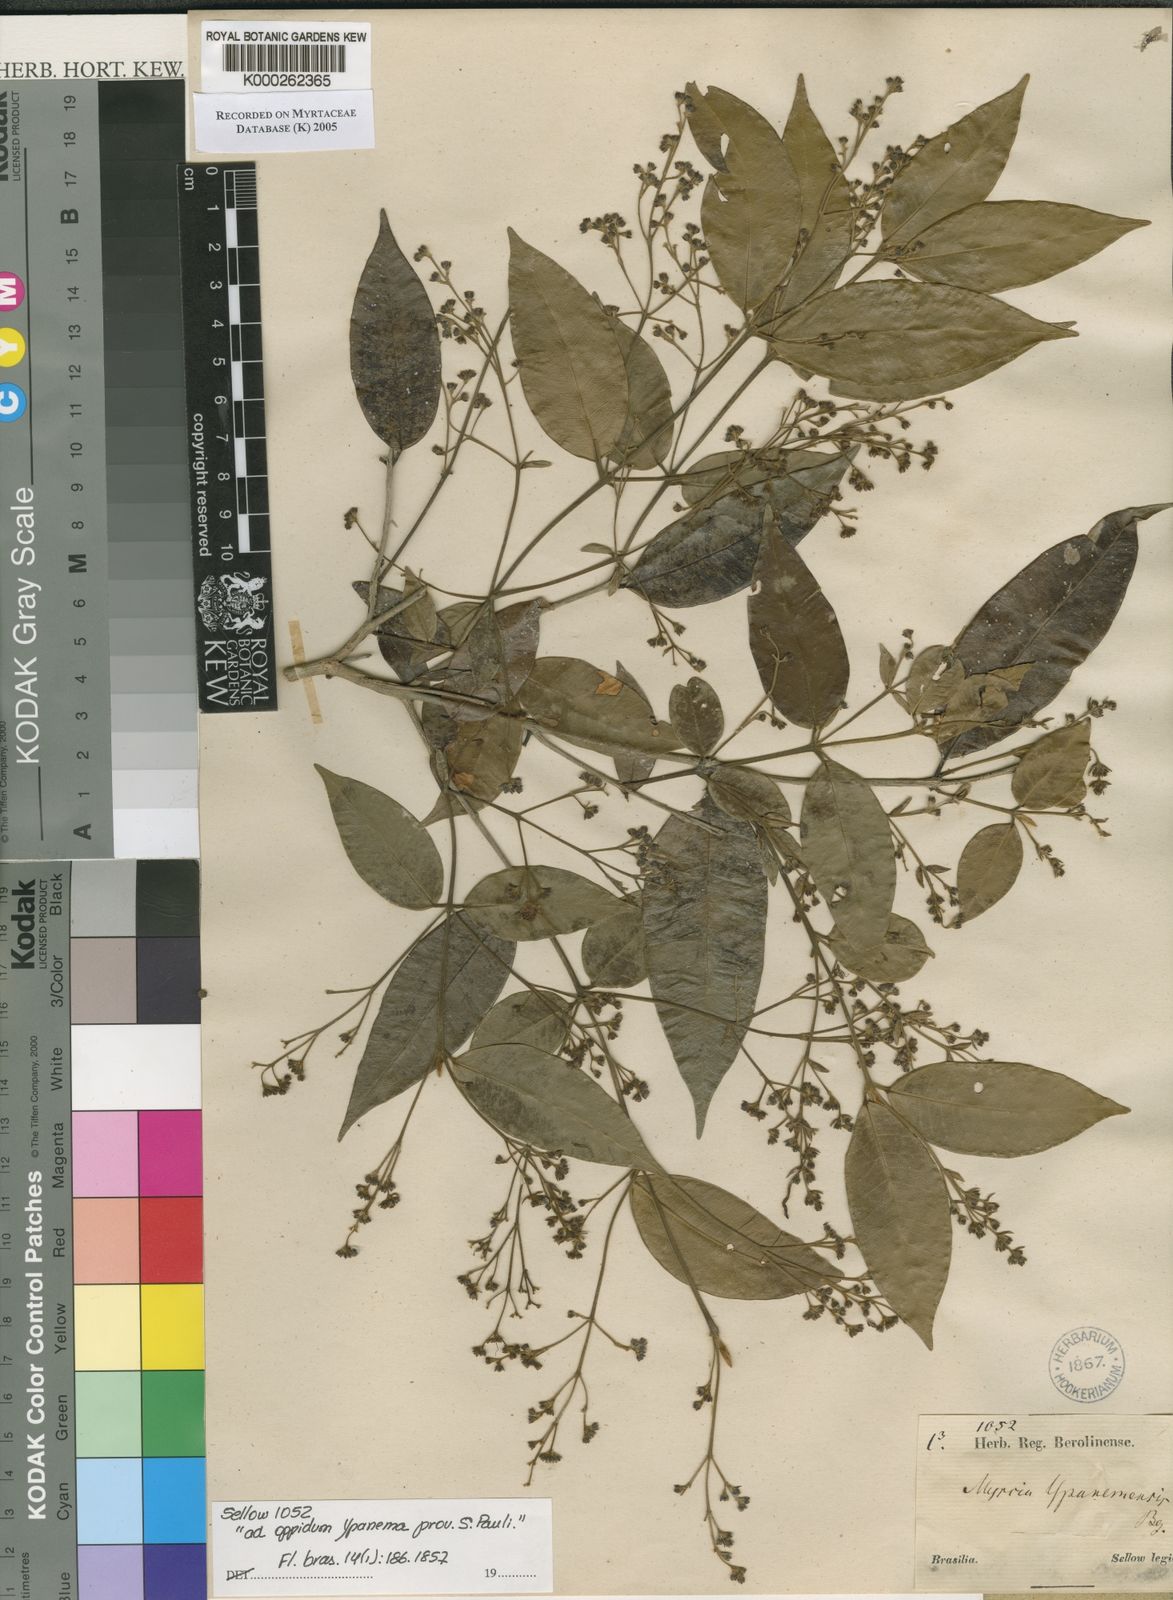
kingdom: Plantae
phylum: Tracheophyta
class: Magnoliopsida
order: Myrtales
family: Myrtaceae
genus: Myrcia
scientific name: Myrcia splendens
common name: Surinam cherry
